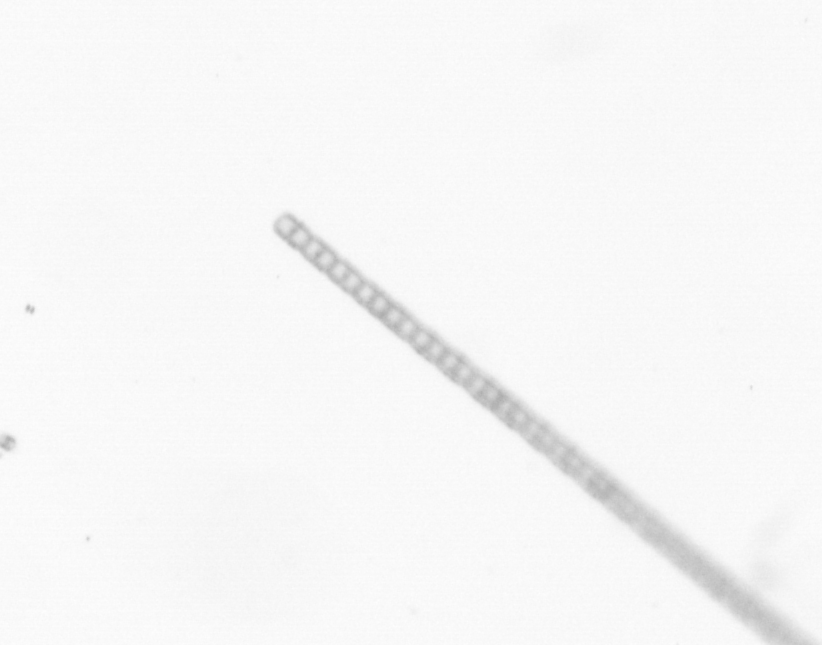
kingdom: Chromista
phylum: Ochrophyta
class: Bacillariophyceae
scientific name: Bacillariophyceae
